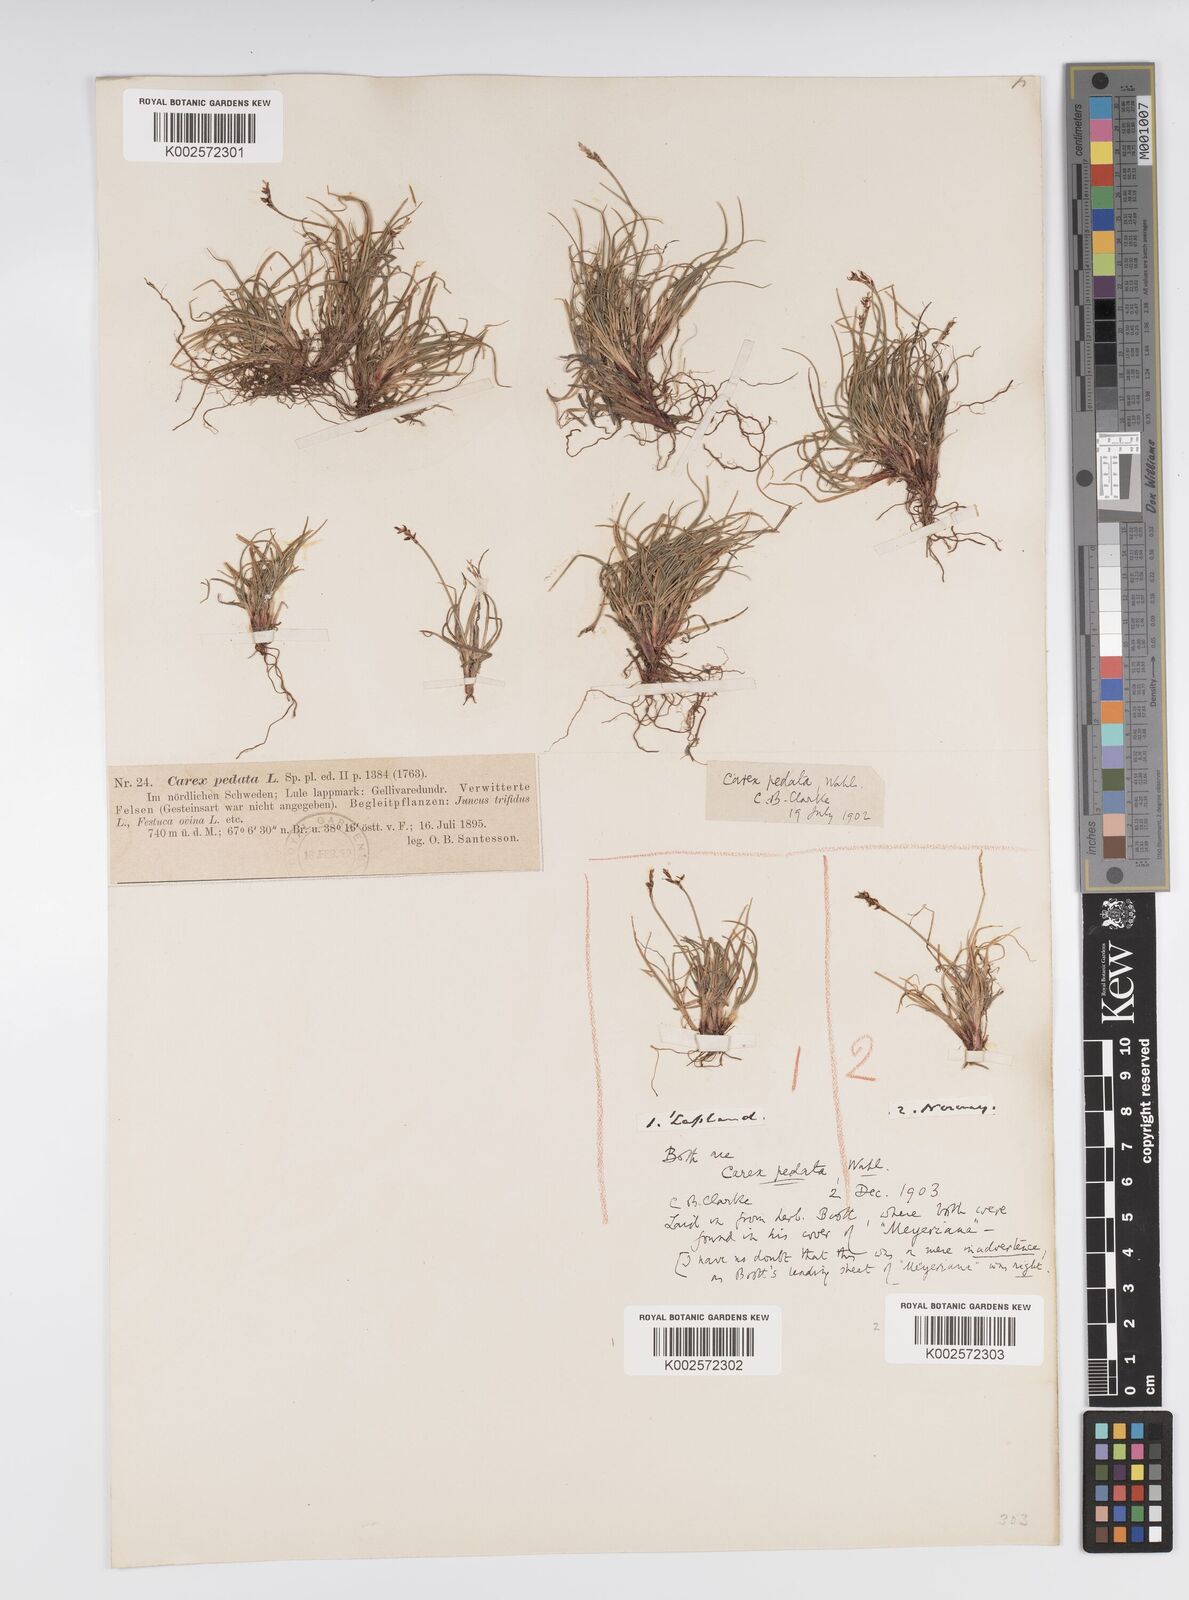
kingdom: Plantae
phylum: Tracheophyta
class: Liliopsida
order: Poales
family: Cyperaceae
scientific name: Cyperaceae
